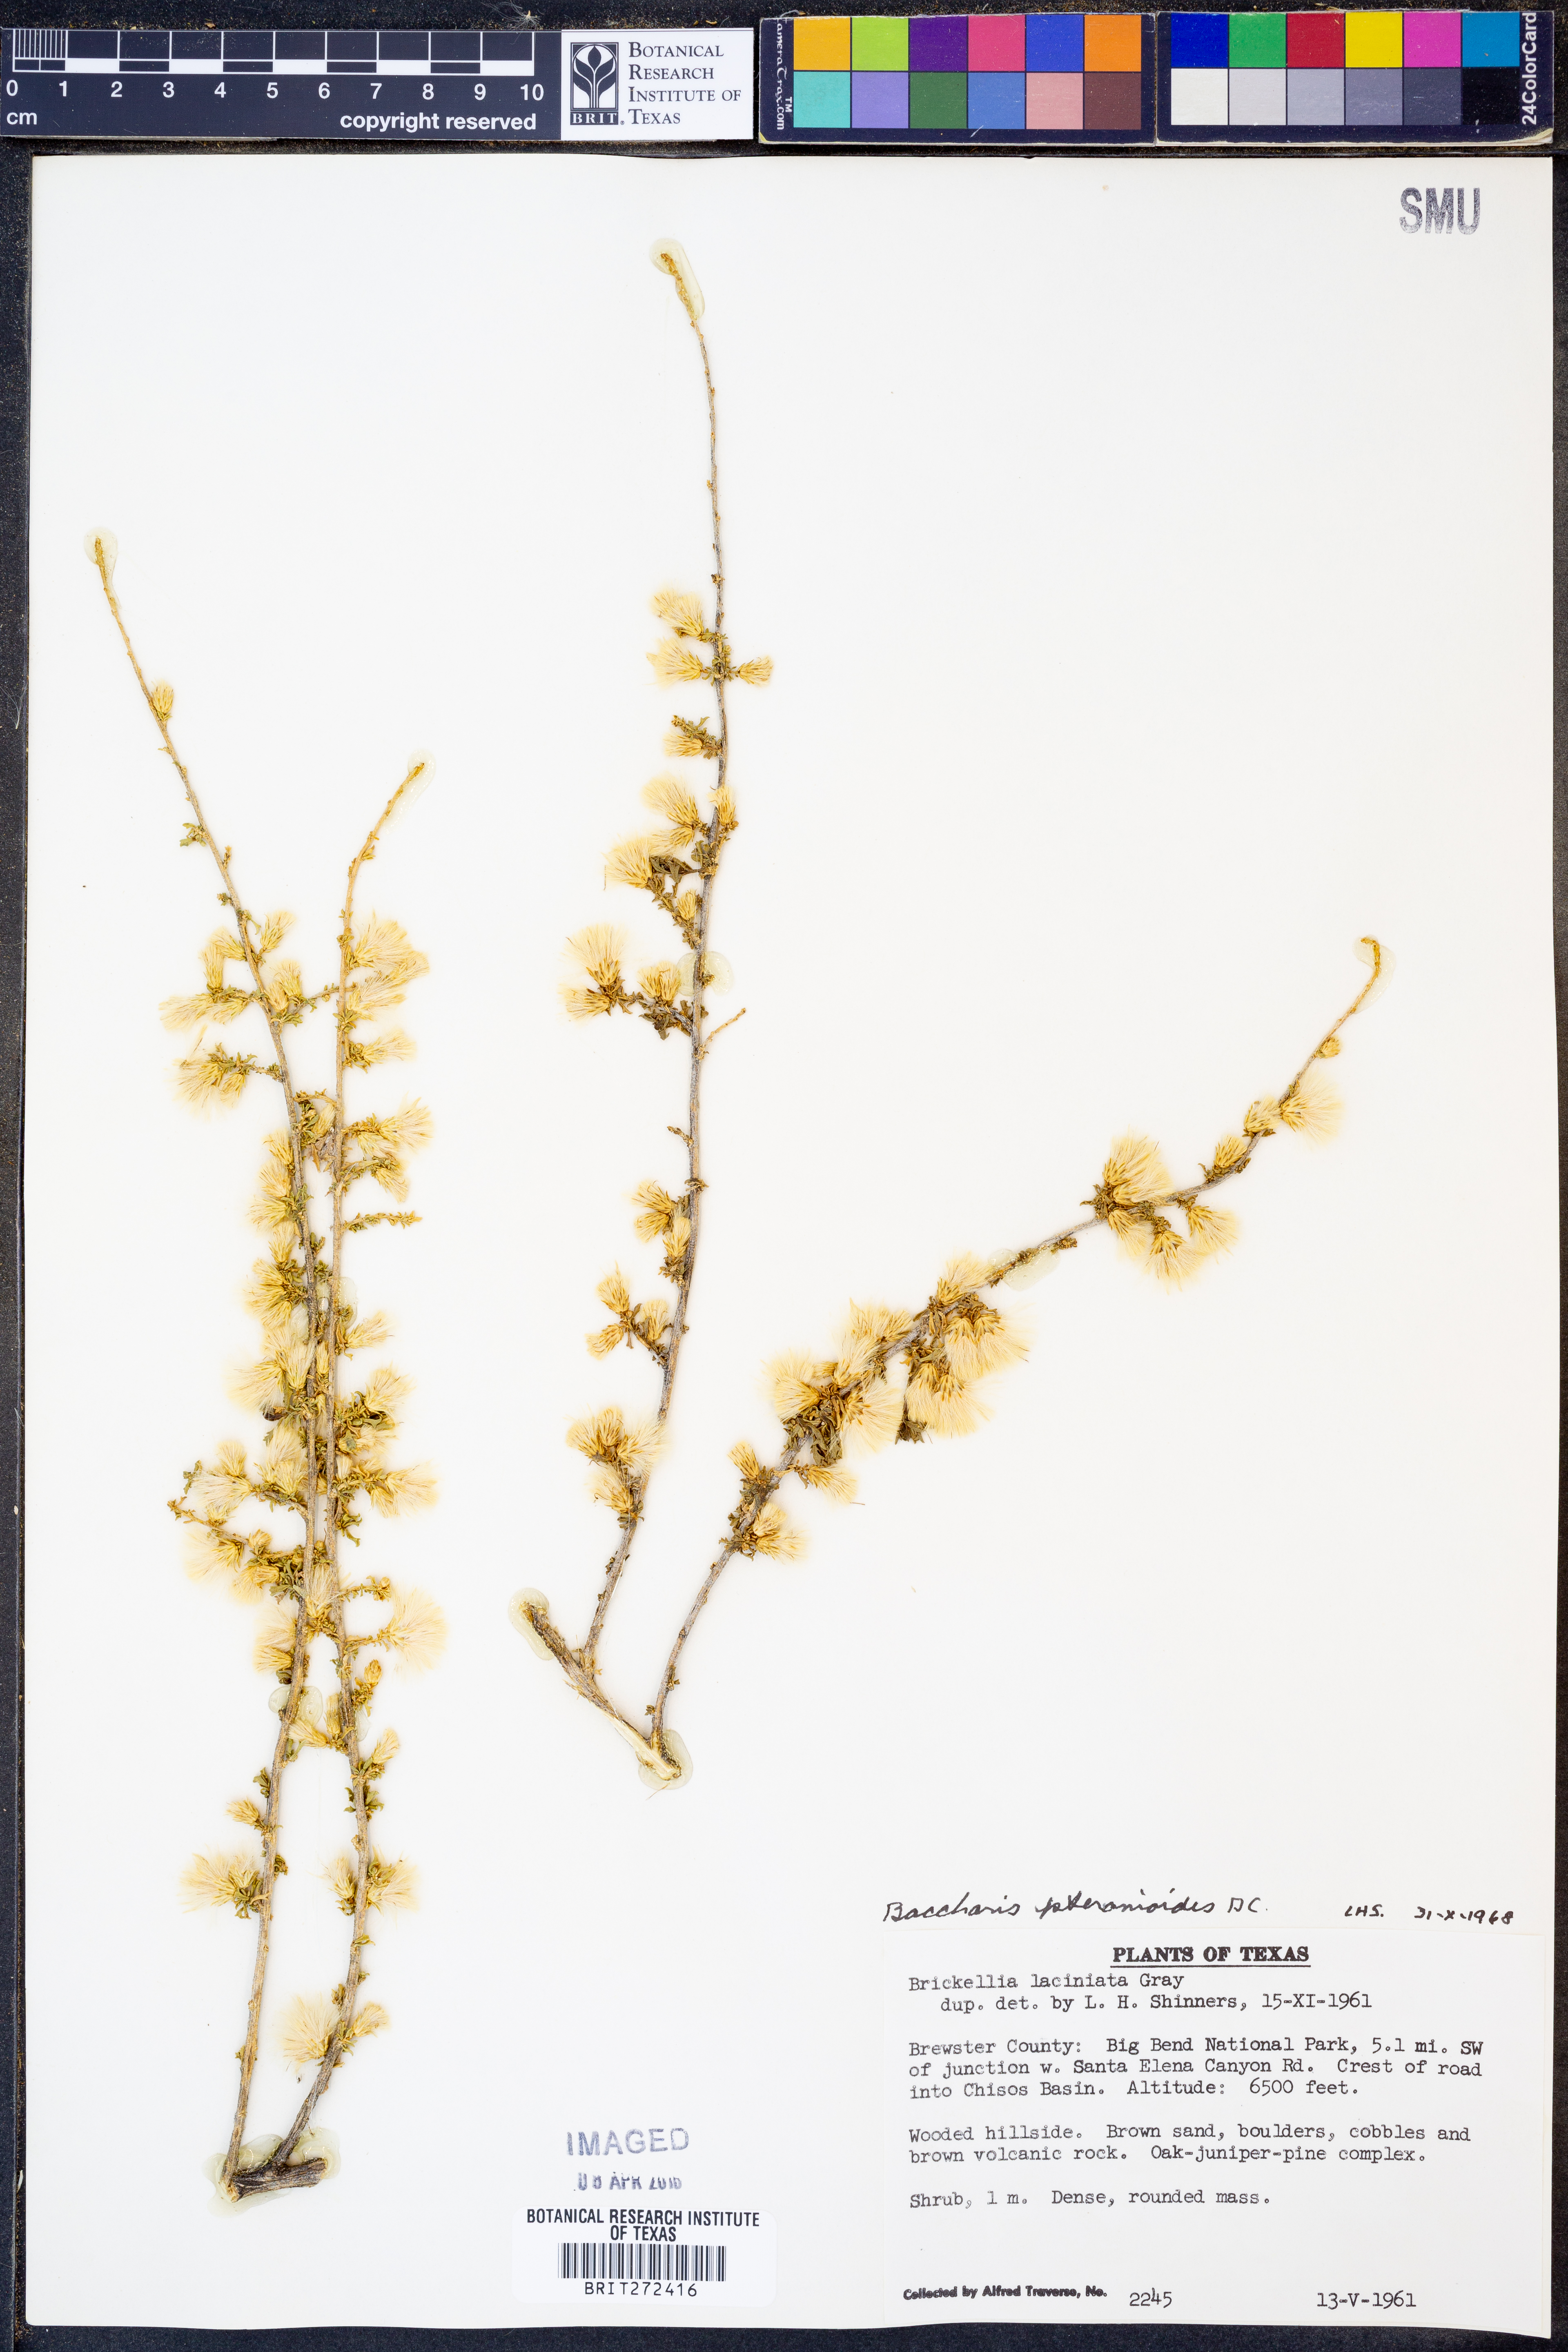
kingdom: Plantae
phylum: Tracheophyta
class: Magnoliopsida
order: Asterales
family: Asteraceae
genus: Baccharis
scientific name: Baccharis pteronioides
